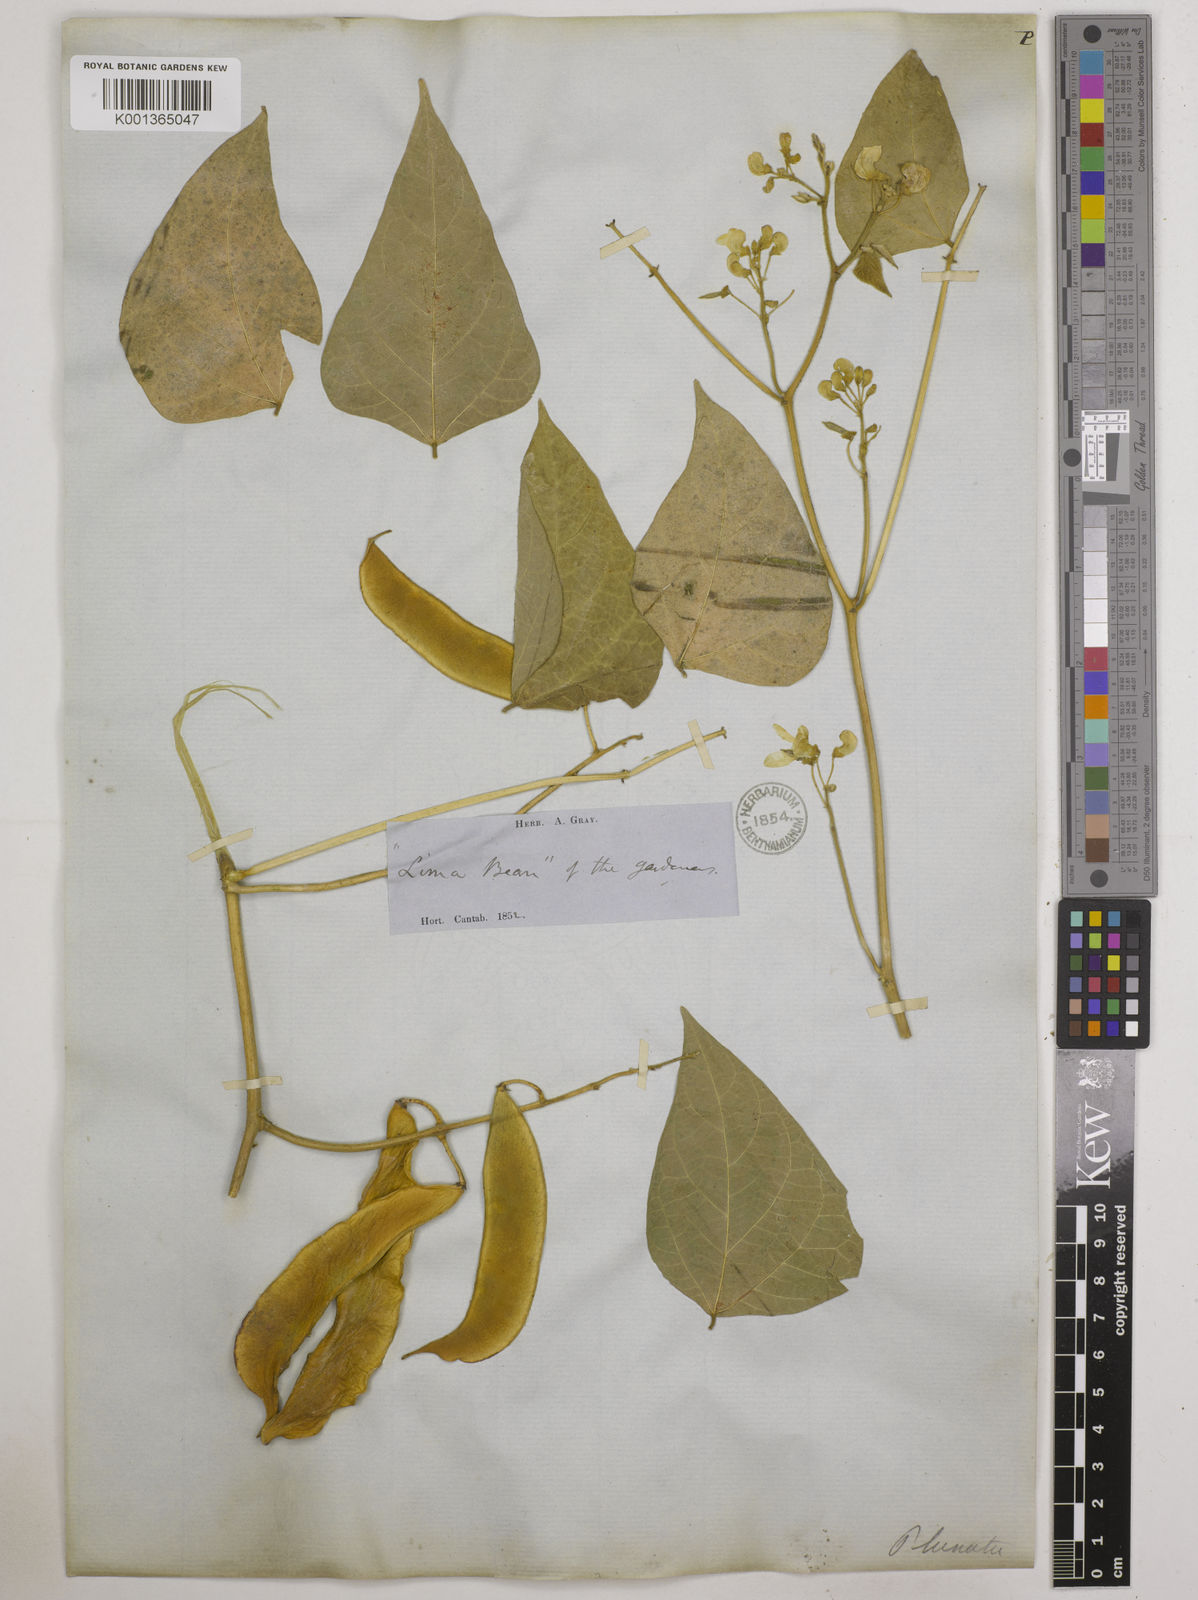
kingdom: Plantae
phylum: Tracheophyta
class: Magnoliopsida
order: Fabales
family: Fabaceae
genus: Phaseolus
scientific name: Phaseolus
